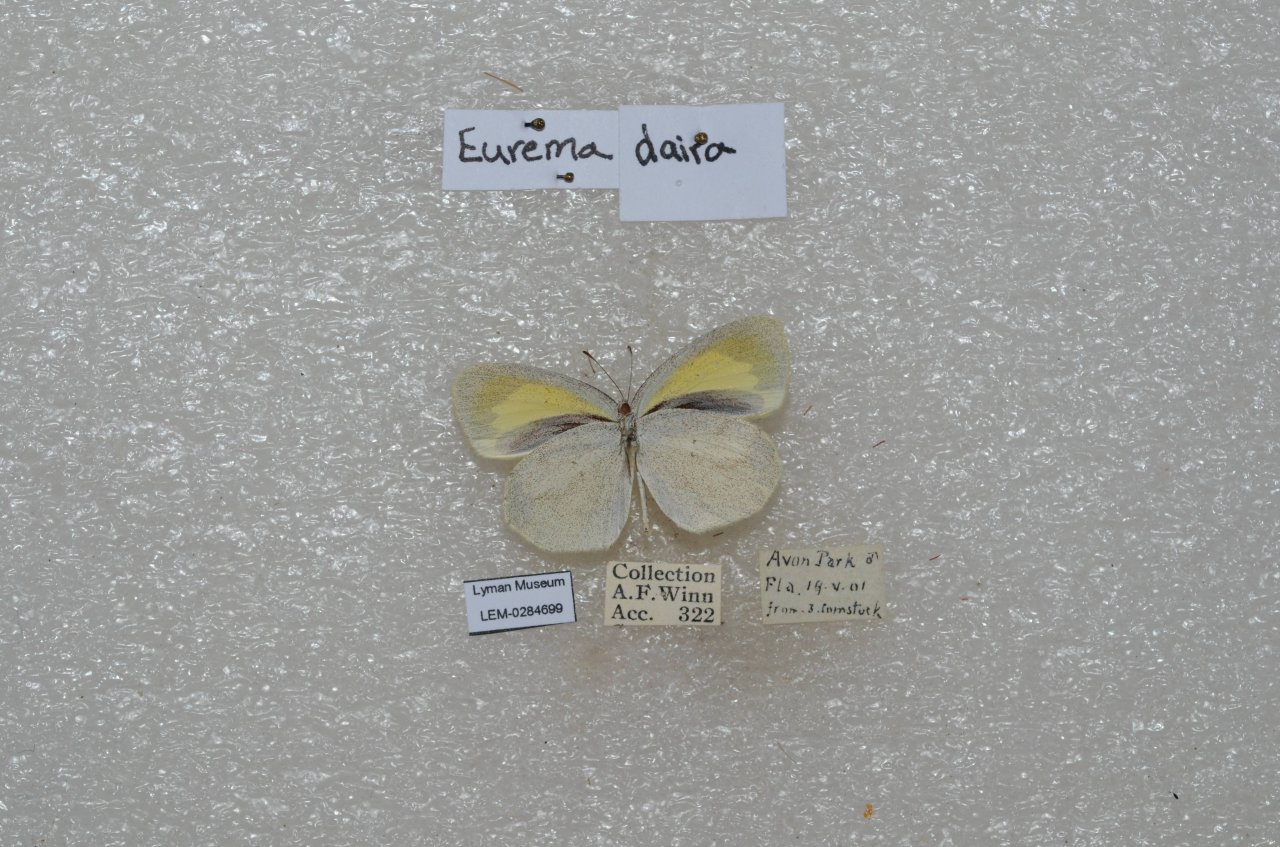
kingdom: Animalia
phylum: Arthropoda
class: Insecta
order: Lepidoptera
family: Pieridae
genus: Eurema
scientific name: Eurema daira
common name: Barred Yellow
